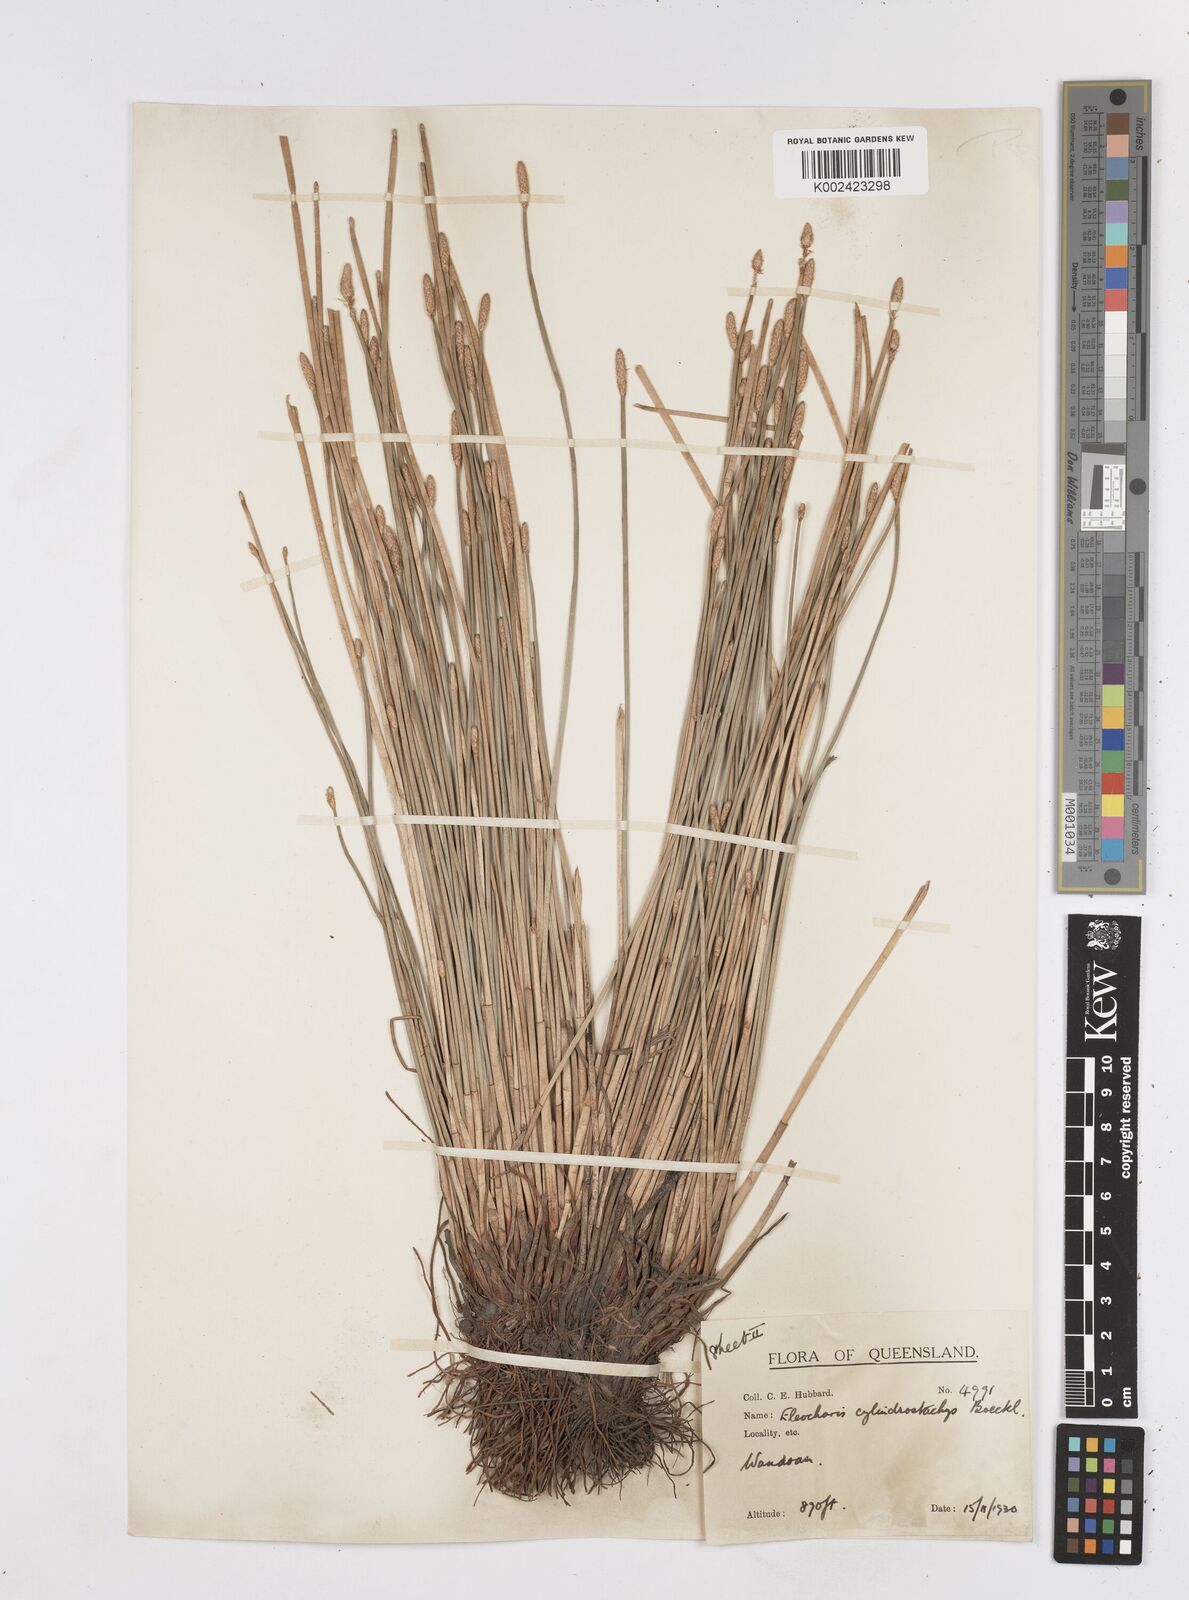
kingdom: Plantae
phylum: Tracheophyta
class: Liliopsida
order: Poales
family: Cyperaceae
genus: Eleocharis
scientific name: Eleocharis cylindrostachys
